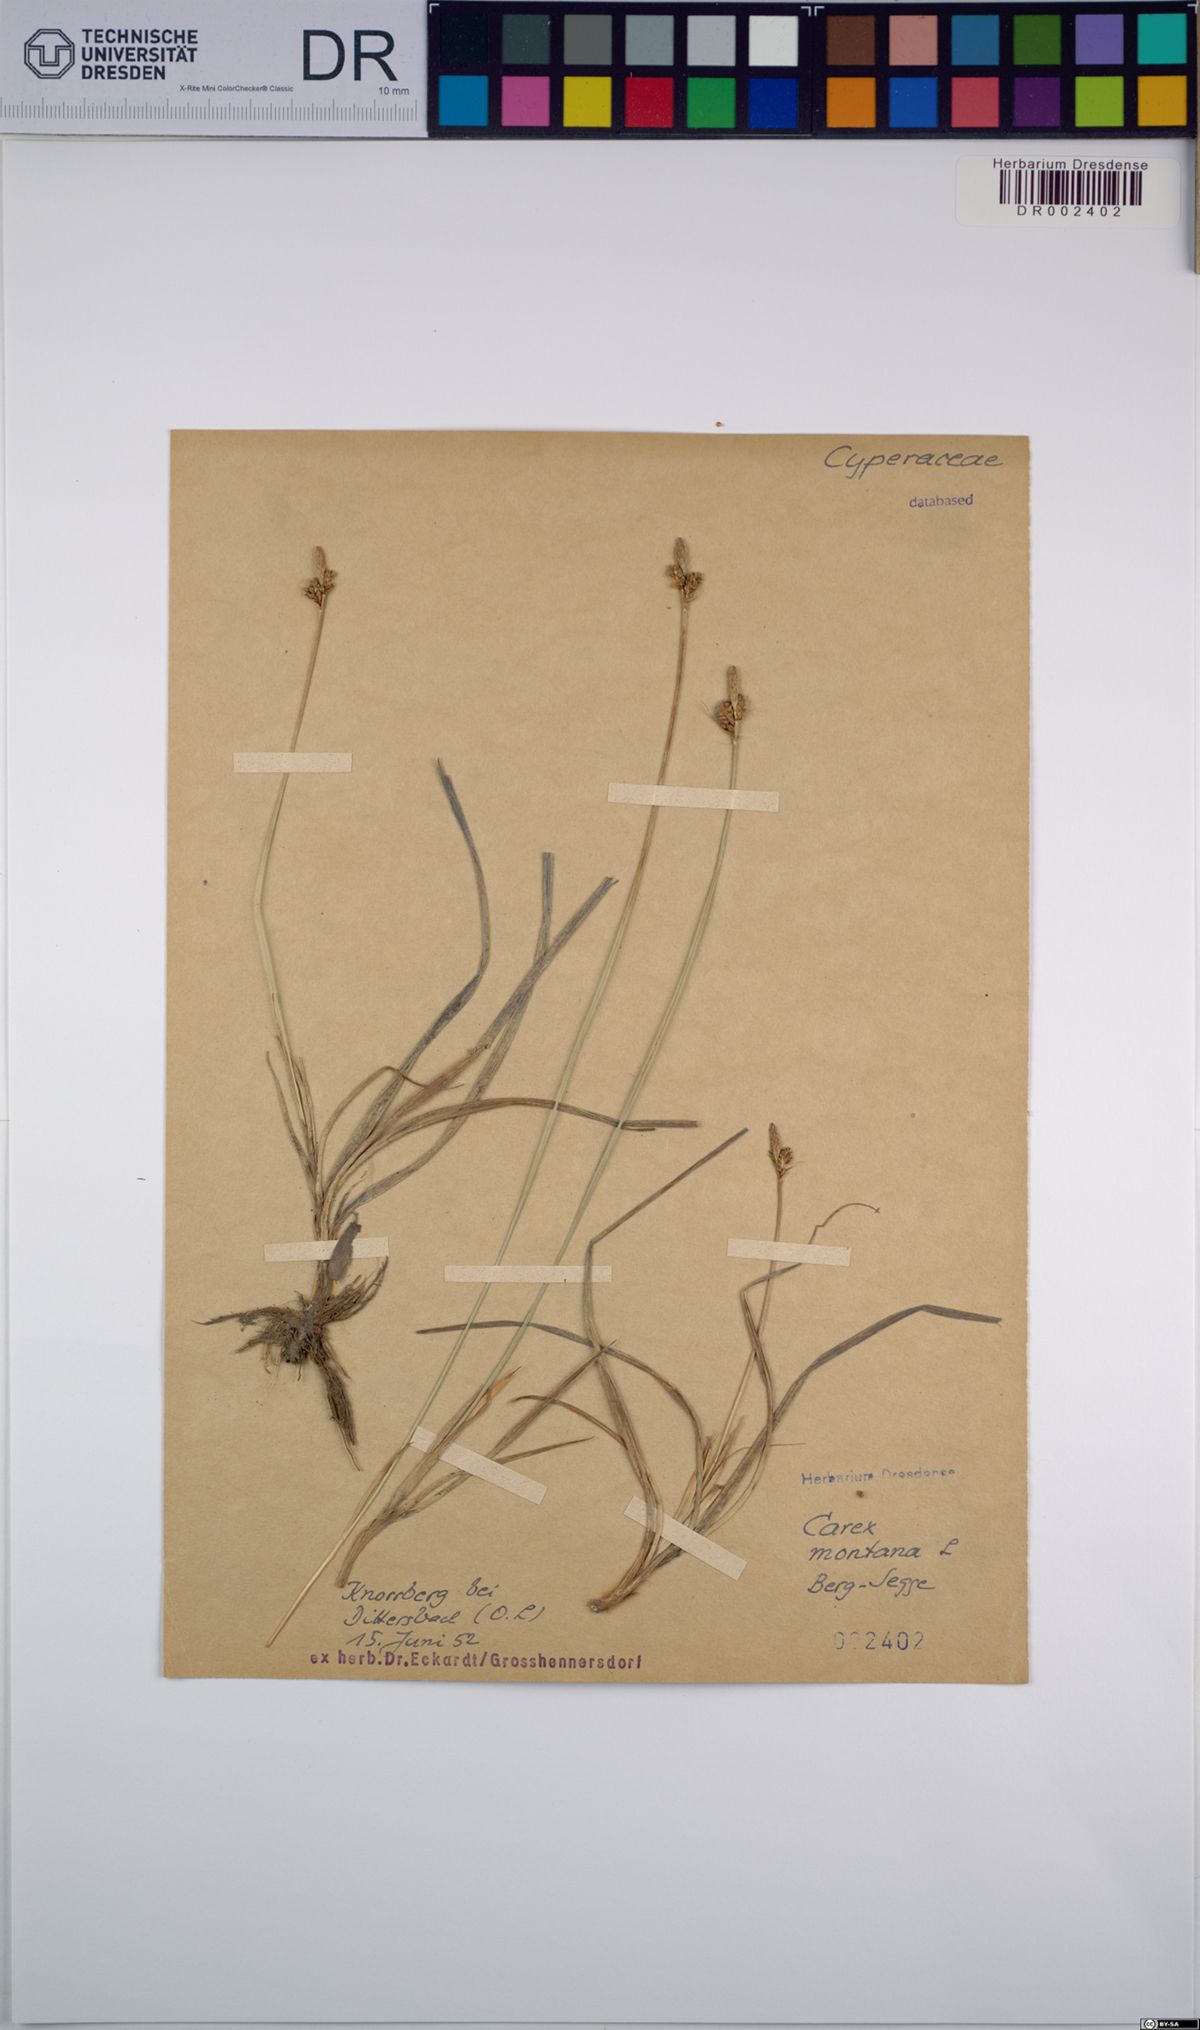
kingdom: Plantae
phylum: Tracheophyta
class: Liliopsida
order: Poales
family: Cyperaceae
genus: Carex
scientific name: Carex montana
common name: Soft-leaved sedge
